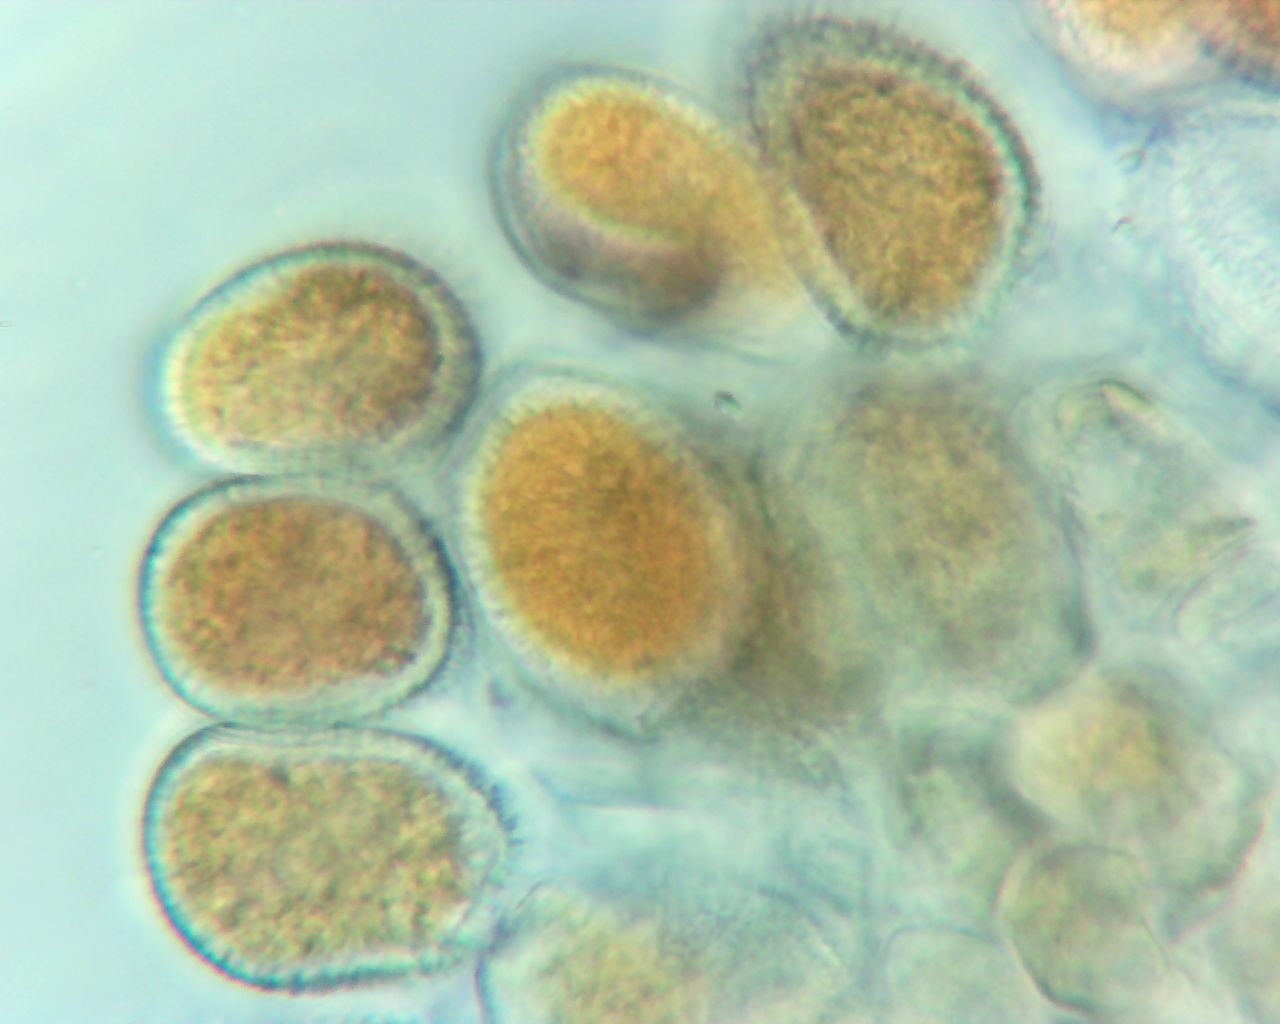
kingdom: Fungi
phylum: Basidiomycota
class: Pucciniomycetes
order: Pucciniales
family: Coleosporiaceae
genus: Coleosporium
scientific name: Coleosporium sonchi
